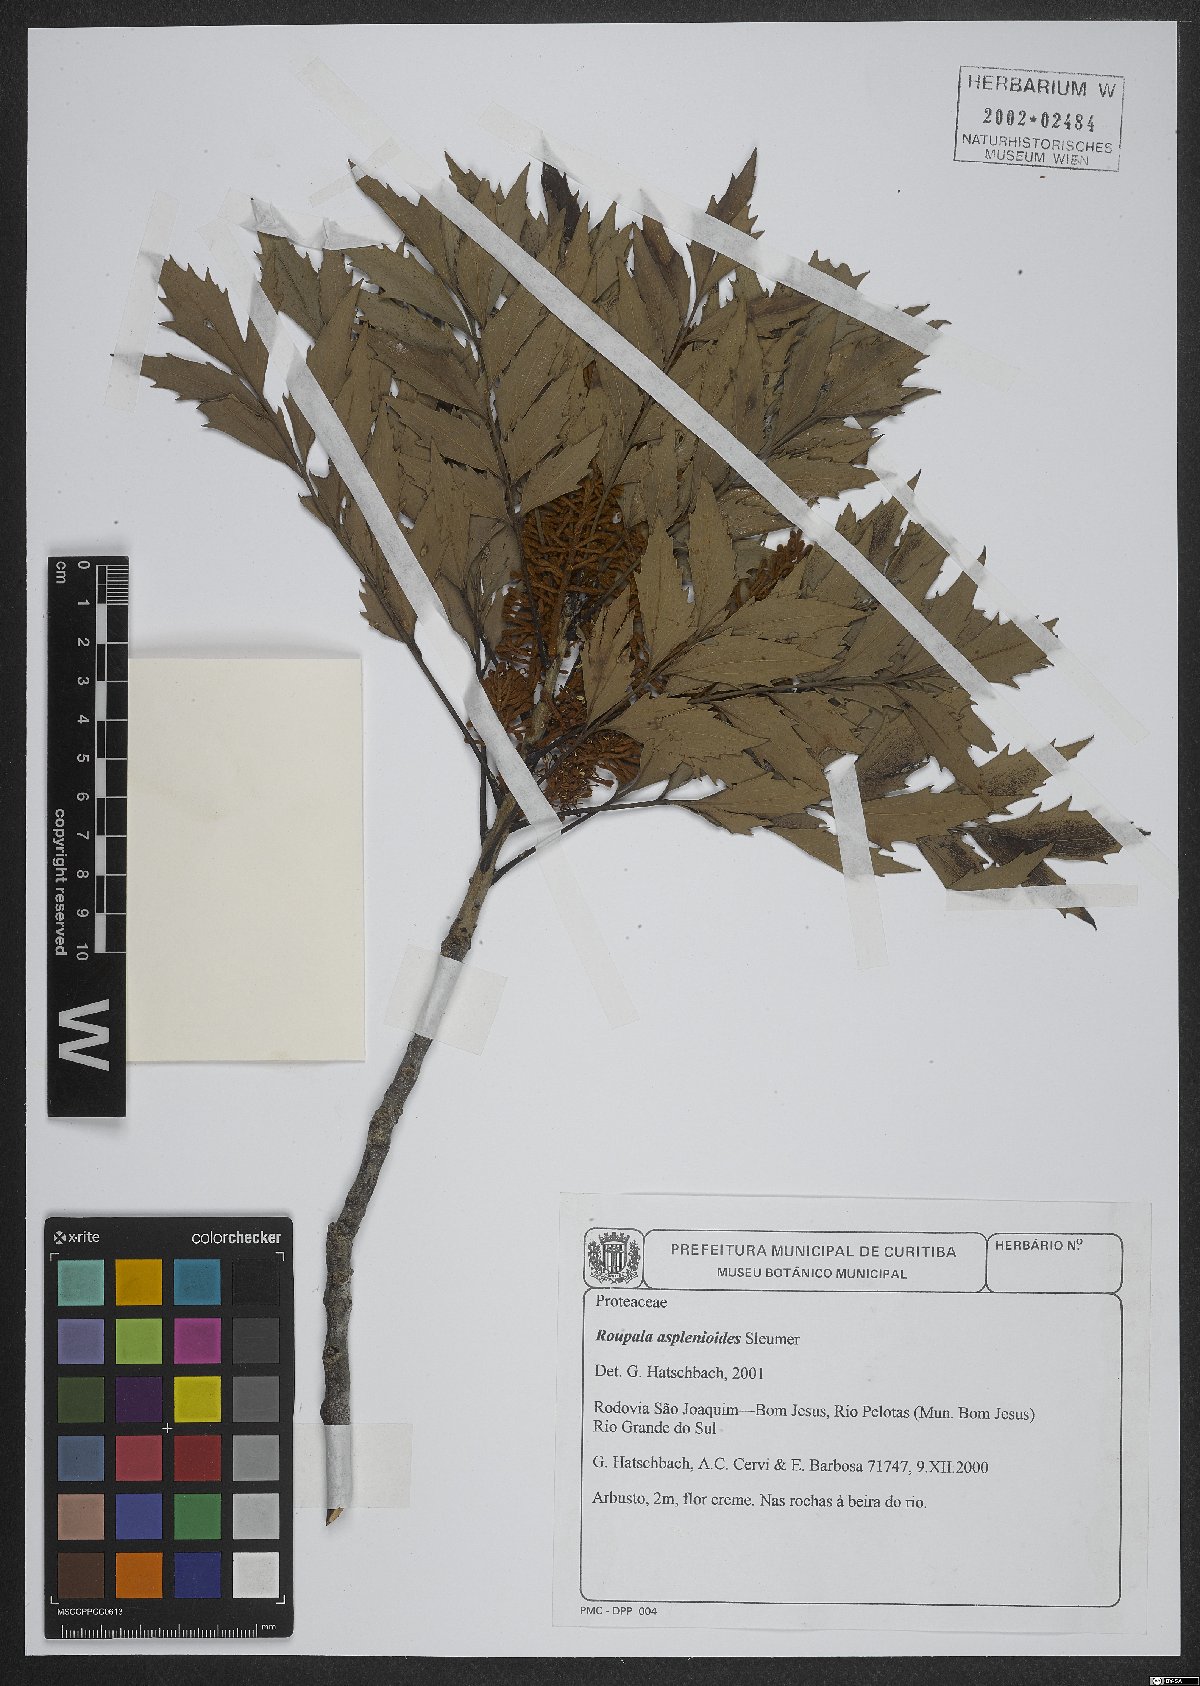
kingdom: Plantae
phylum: Tracheophyta
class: Magnoliopsida
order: Proteales
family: Proteaceae
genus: Roupala
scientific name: Roupala asplenioides
